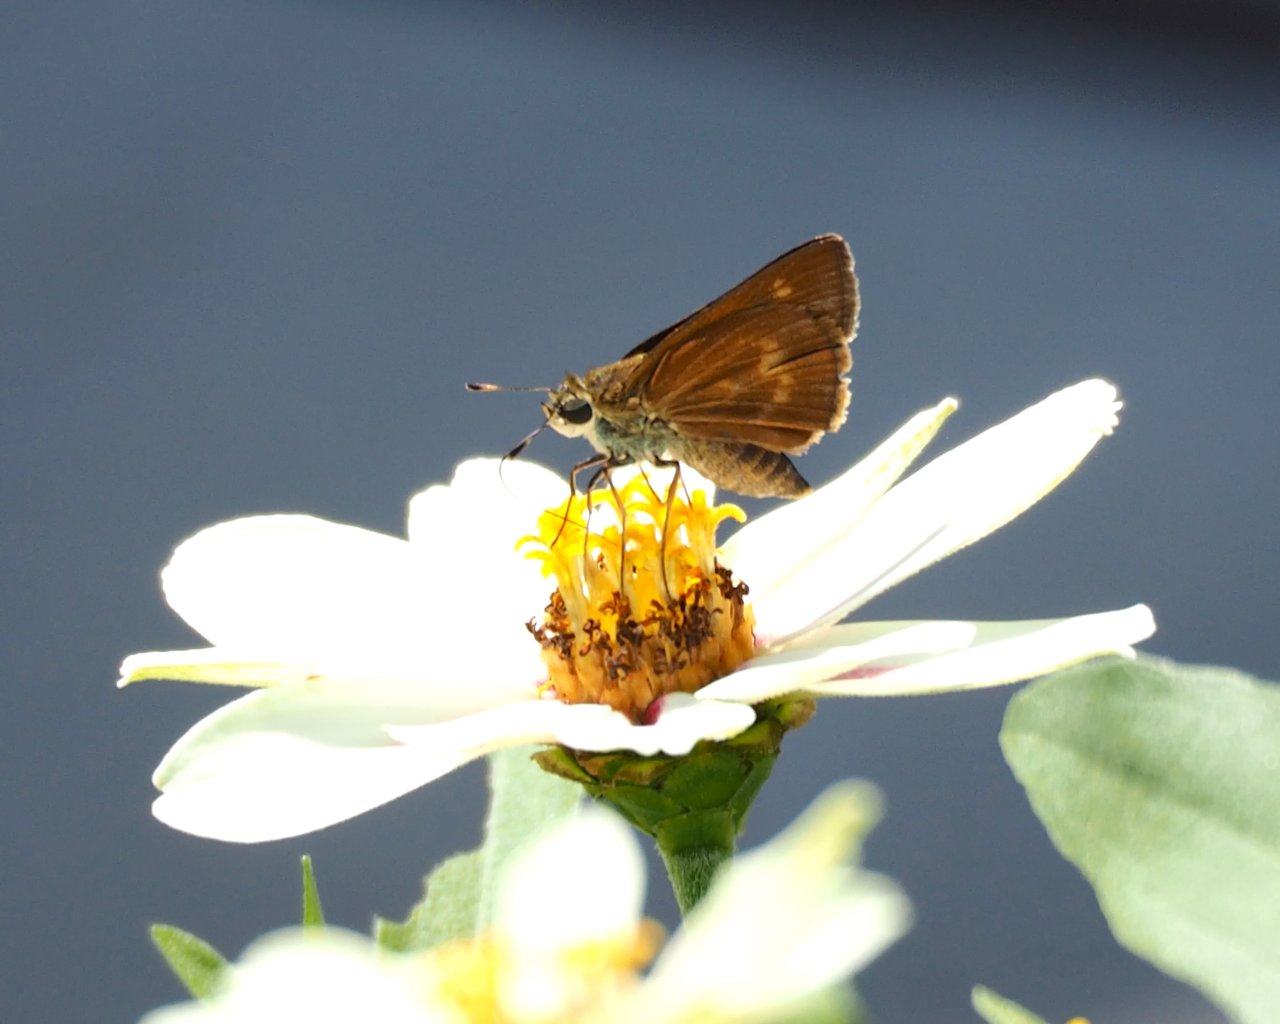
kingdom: Animalia
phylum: Arthropoda
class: Insecta
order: Lepidoptera
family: Hesperiidae
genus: Wallengrenia
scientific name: Wallengrenia otho
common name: Southern Broken-Dash
